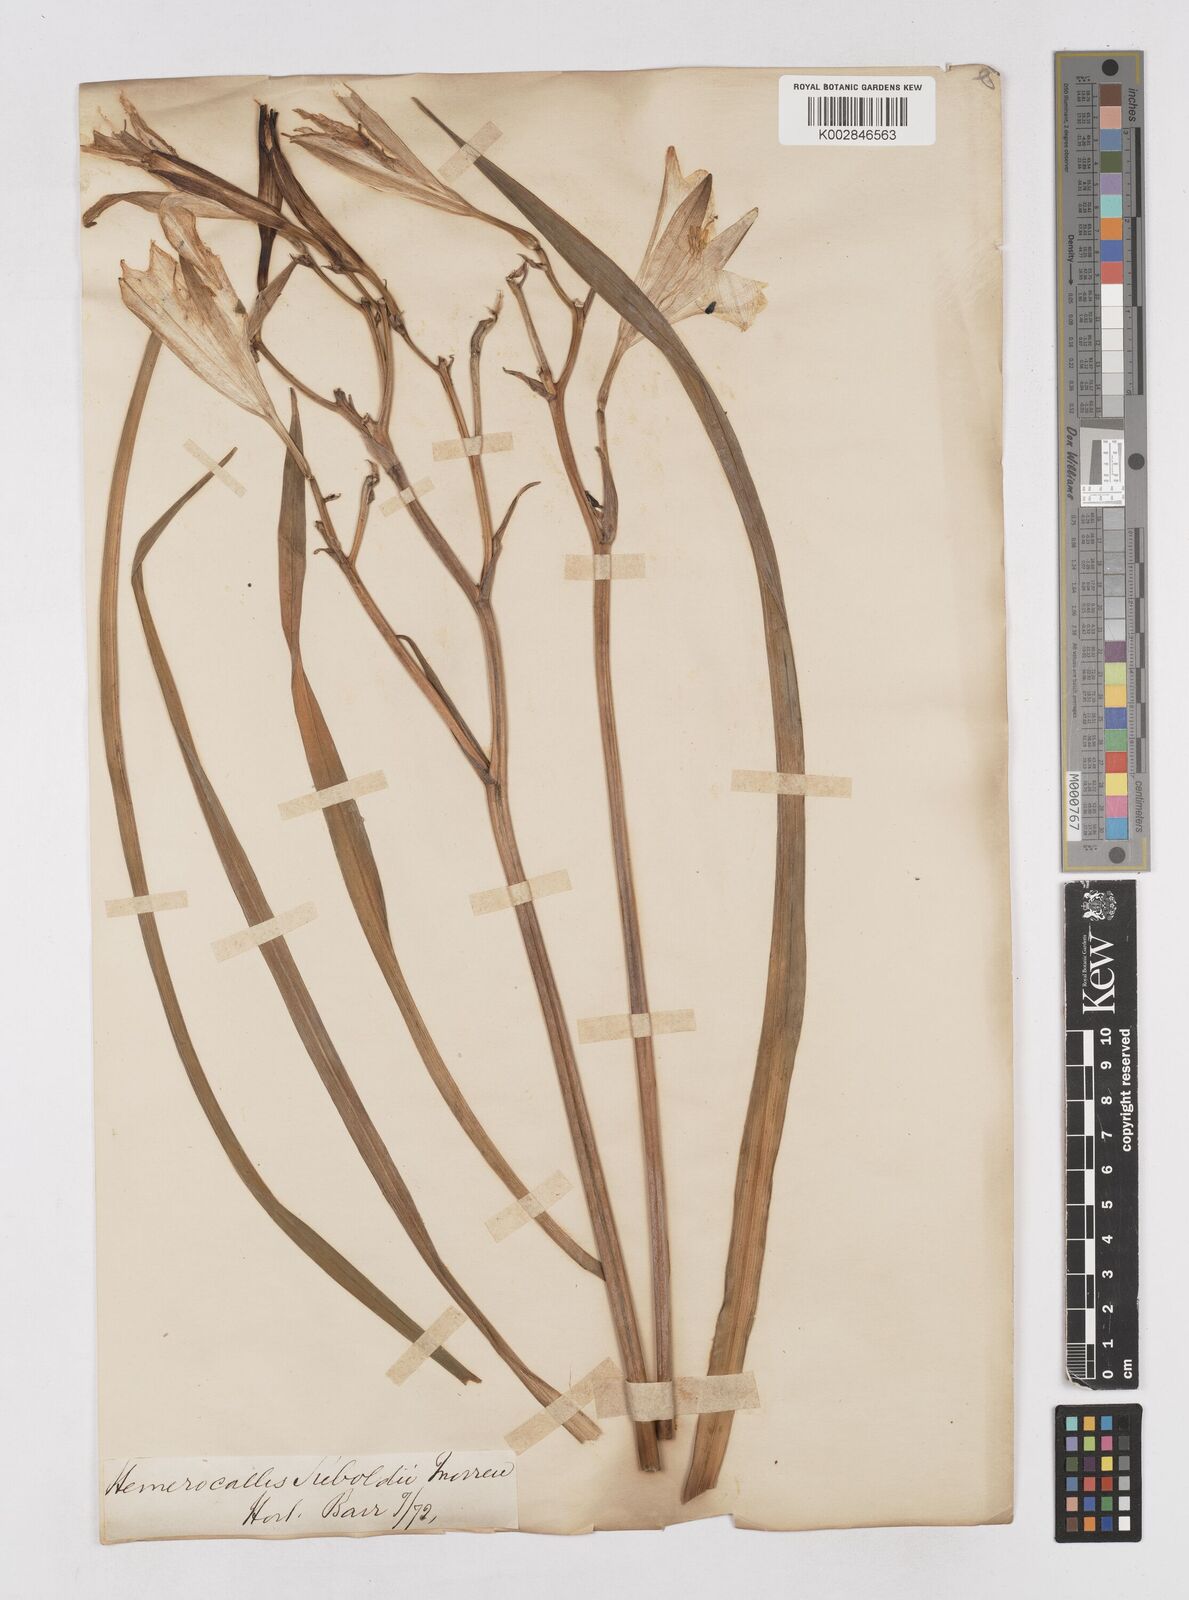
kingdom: Plantae
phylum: Tracheophyta
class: Liliopsida
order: Asparagales
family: Asphodelaceae
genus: Hemerocallis
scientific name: Hemerocallis thunbergii
